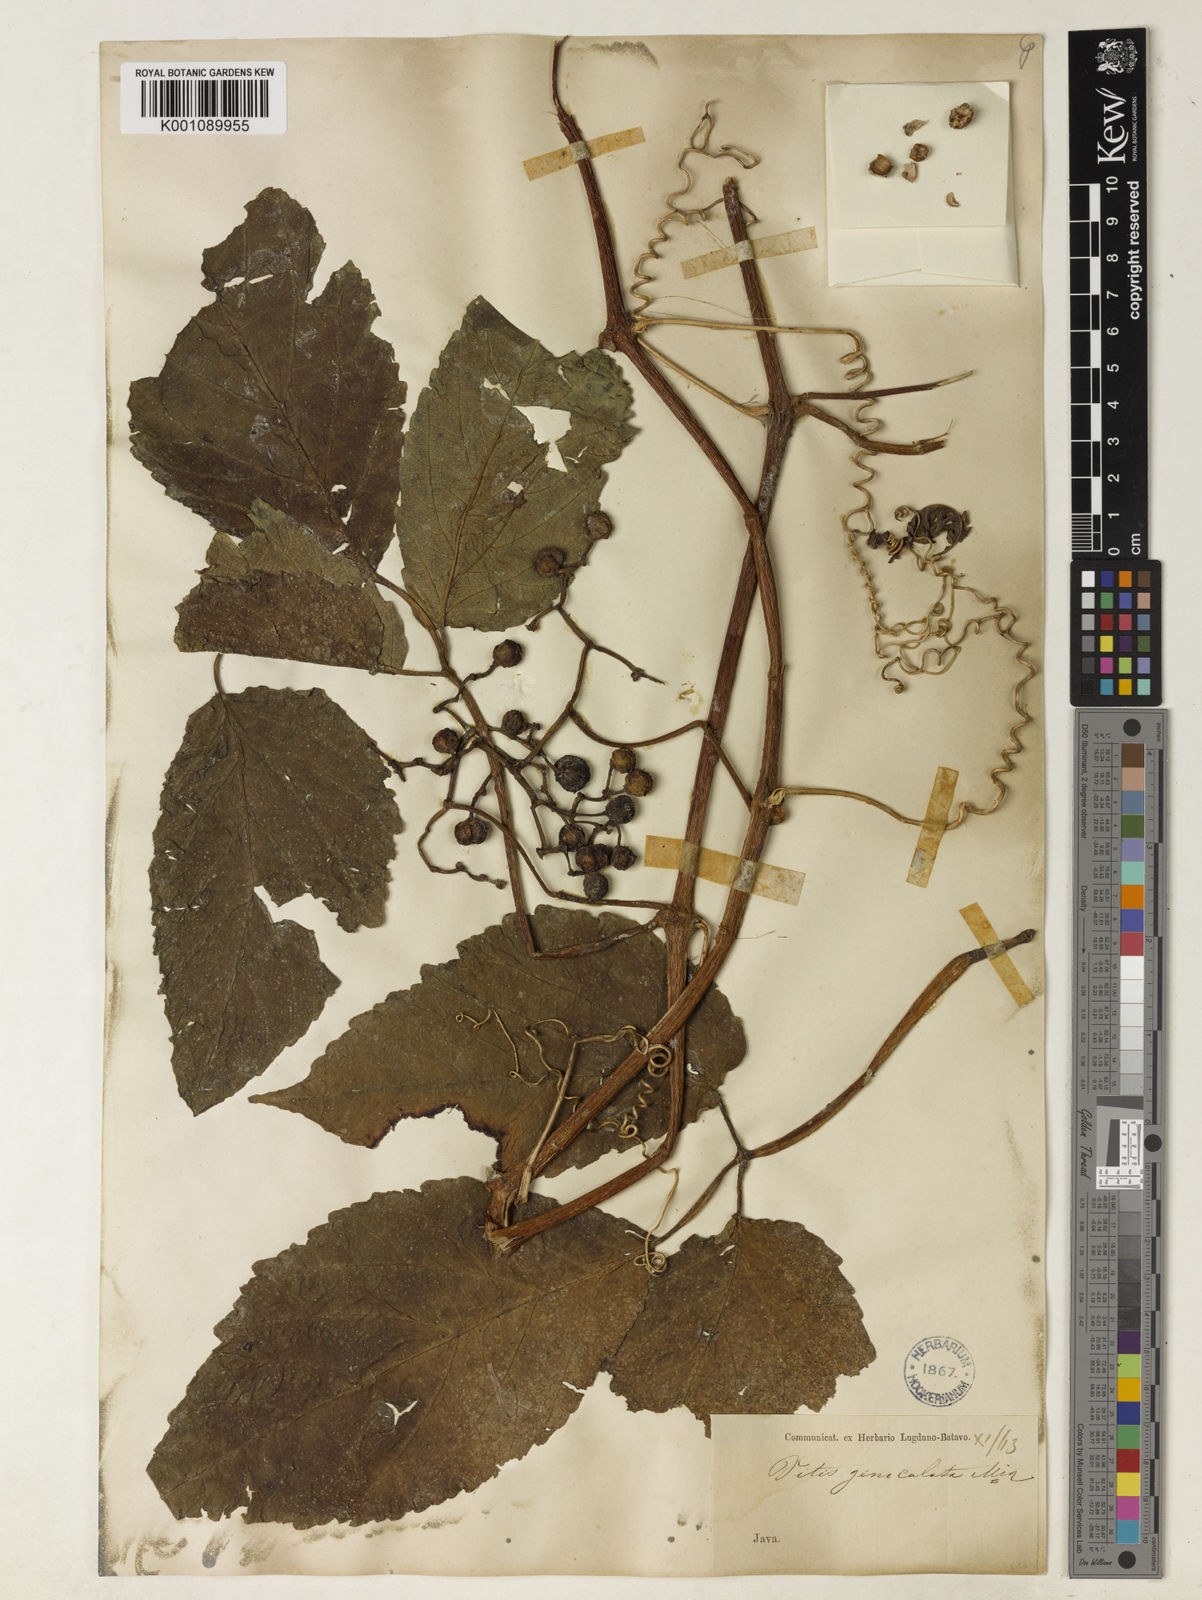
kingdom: Plantae
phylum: Tracheophyta
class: Magnoliopsida
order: Vitales
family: Vitaceae
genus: Cayratia
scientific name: Cayratia mollissima
